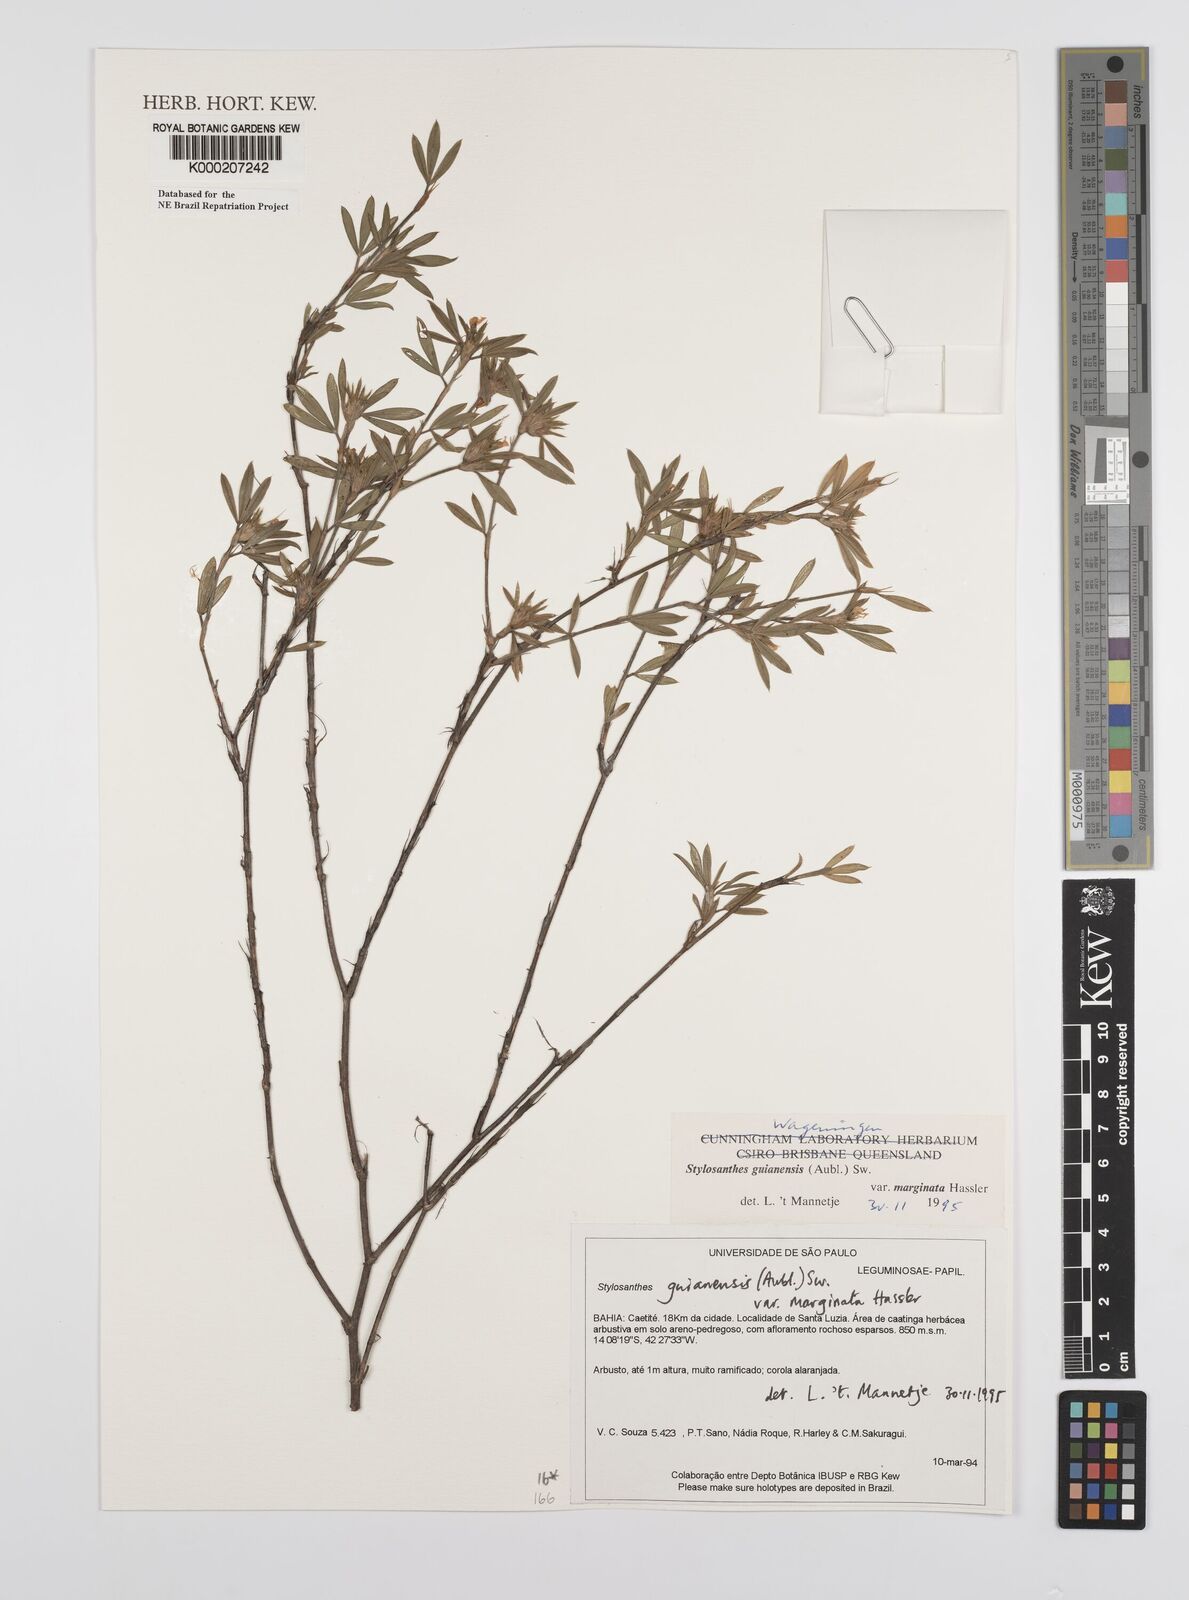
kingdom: Plantae
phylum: Tracheophyta
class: Magnoliopsida
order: Fabales
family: Fabaceae
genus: Stylosanthes
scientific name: Stylosanthes guianensis
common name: Pencil flower
